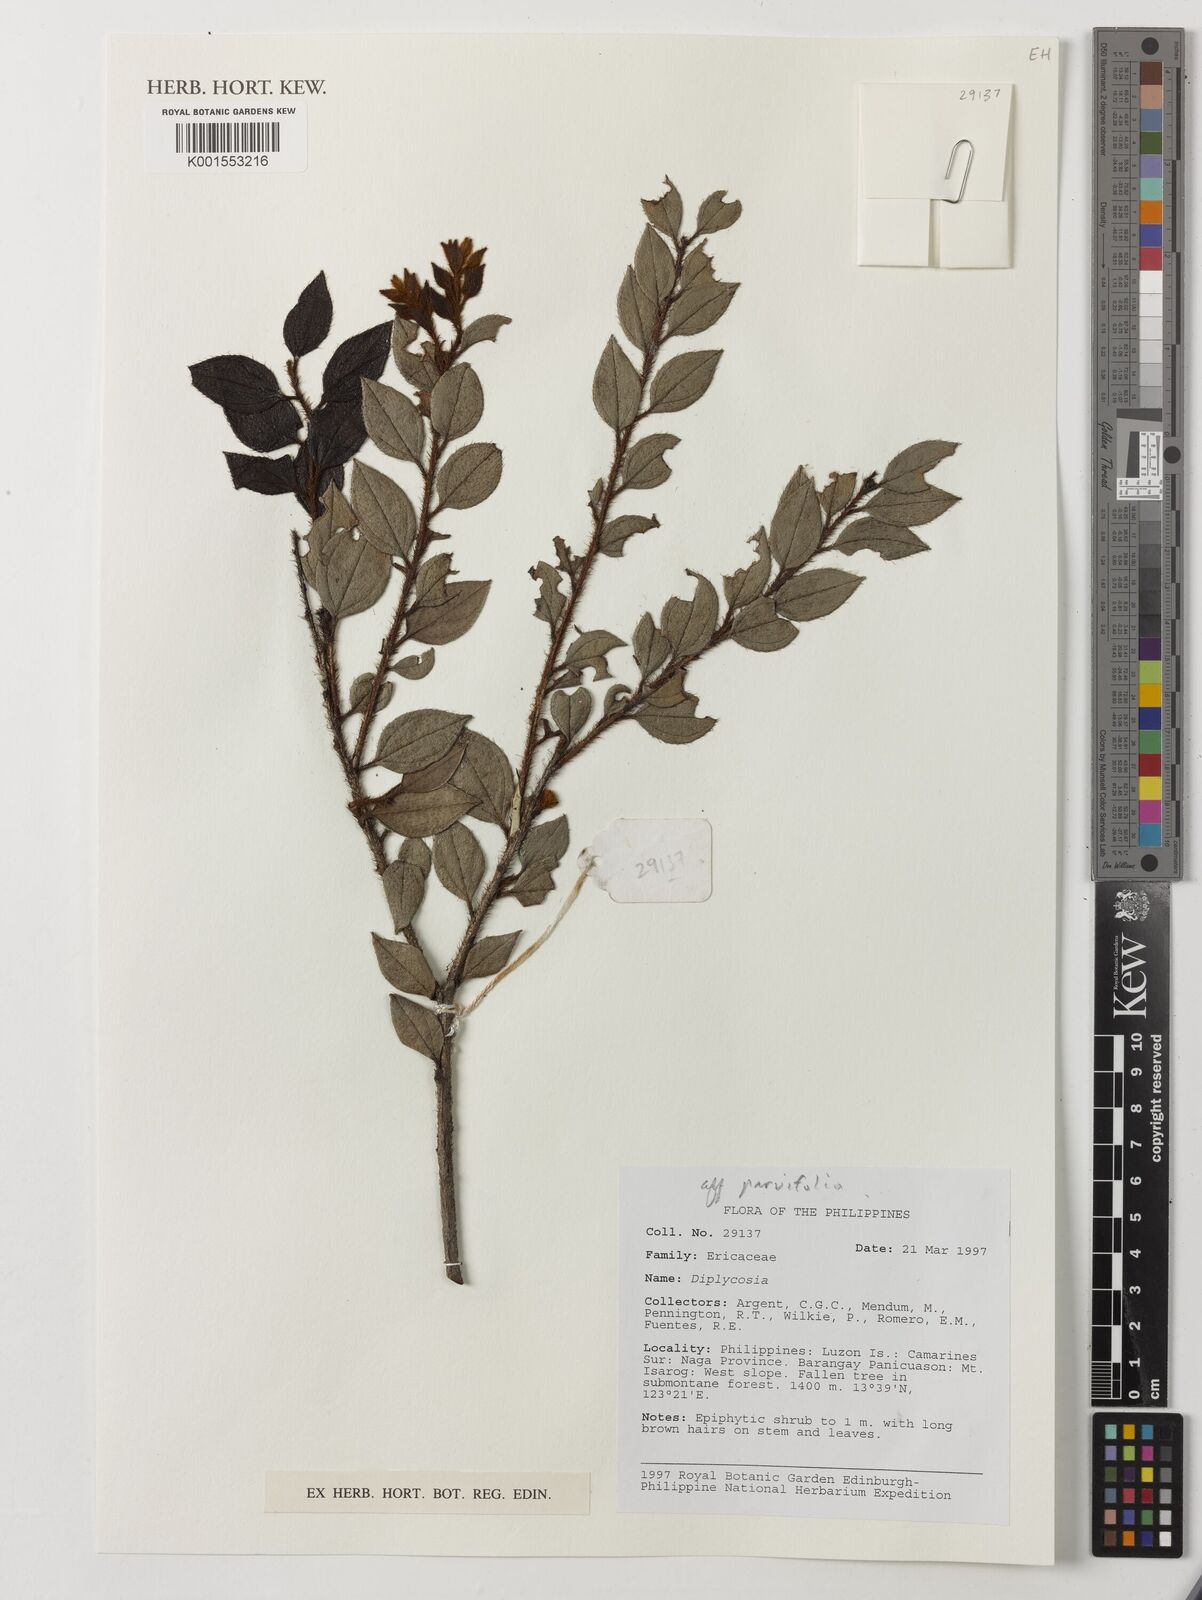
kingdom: Plantae
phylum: Tracheophyta
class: Magnoliopsida
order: Ericales
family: Ericaceae
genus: Gaultheria
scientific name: Gaultheria
